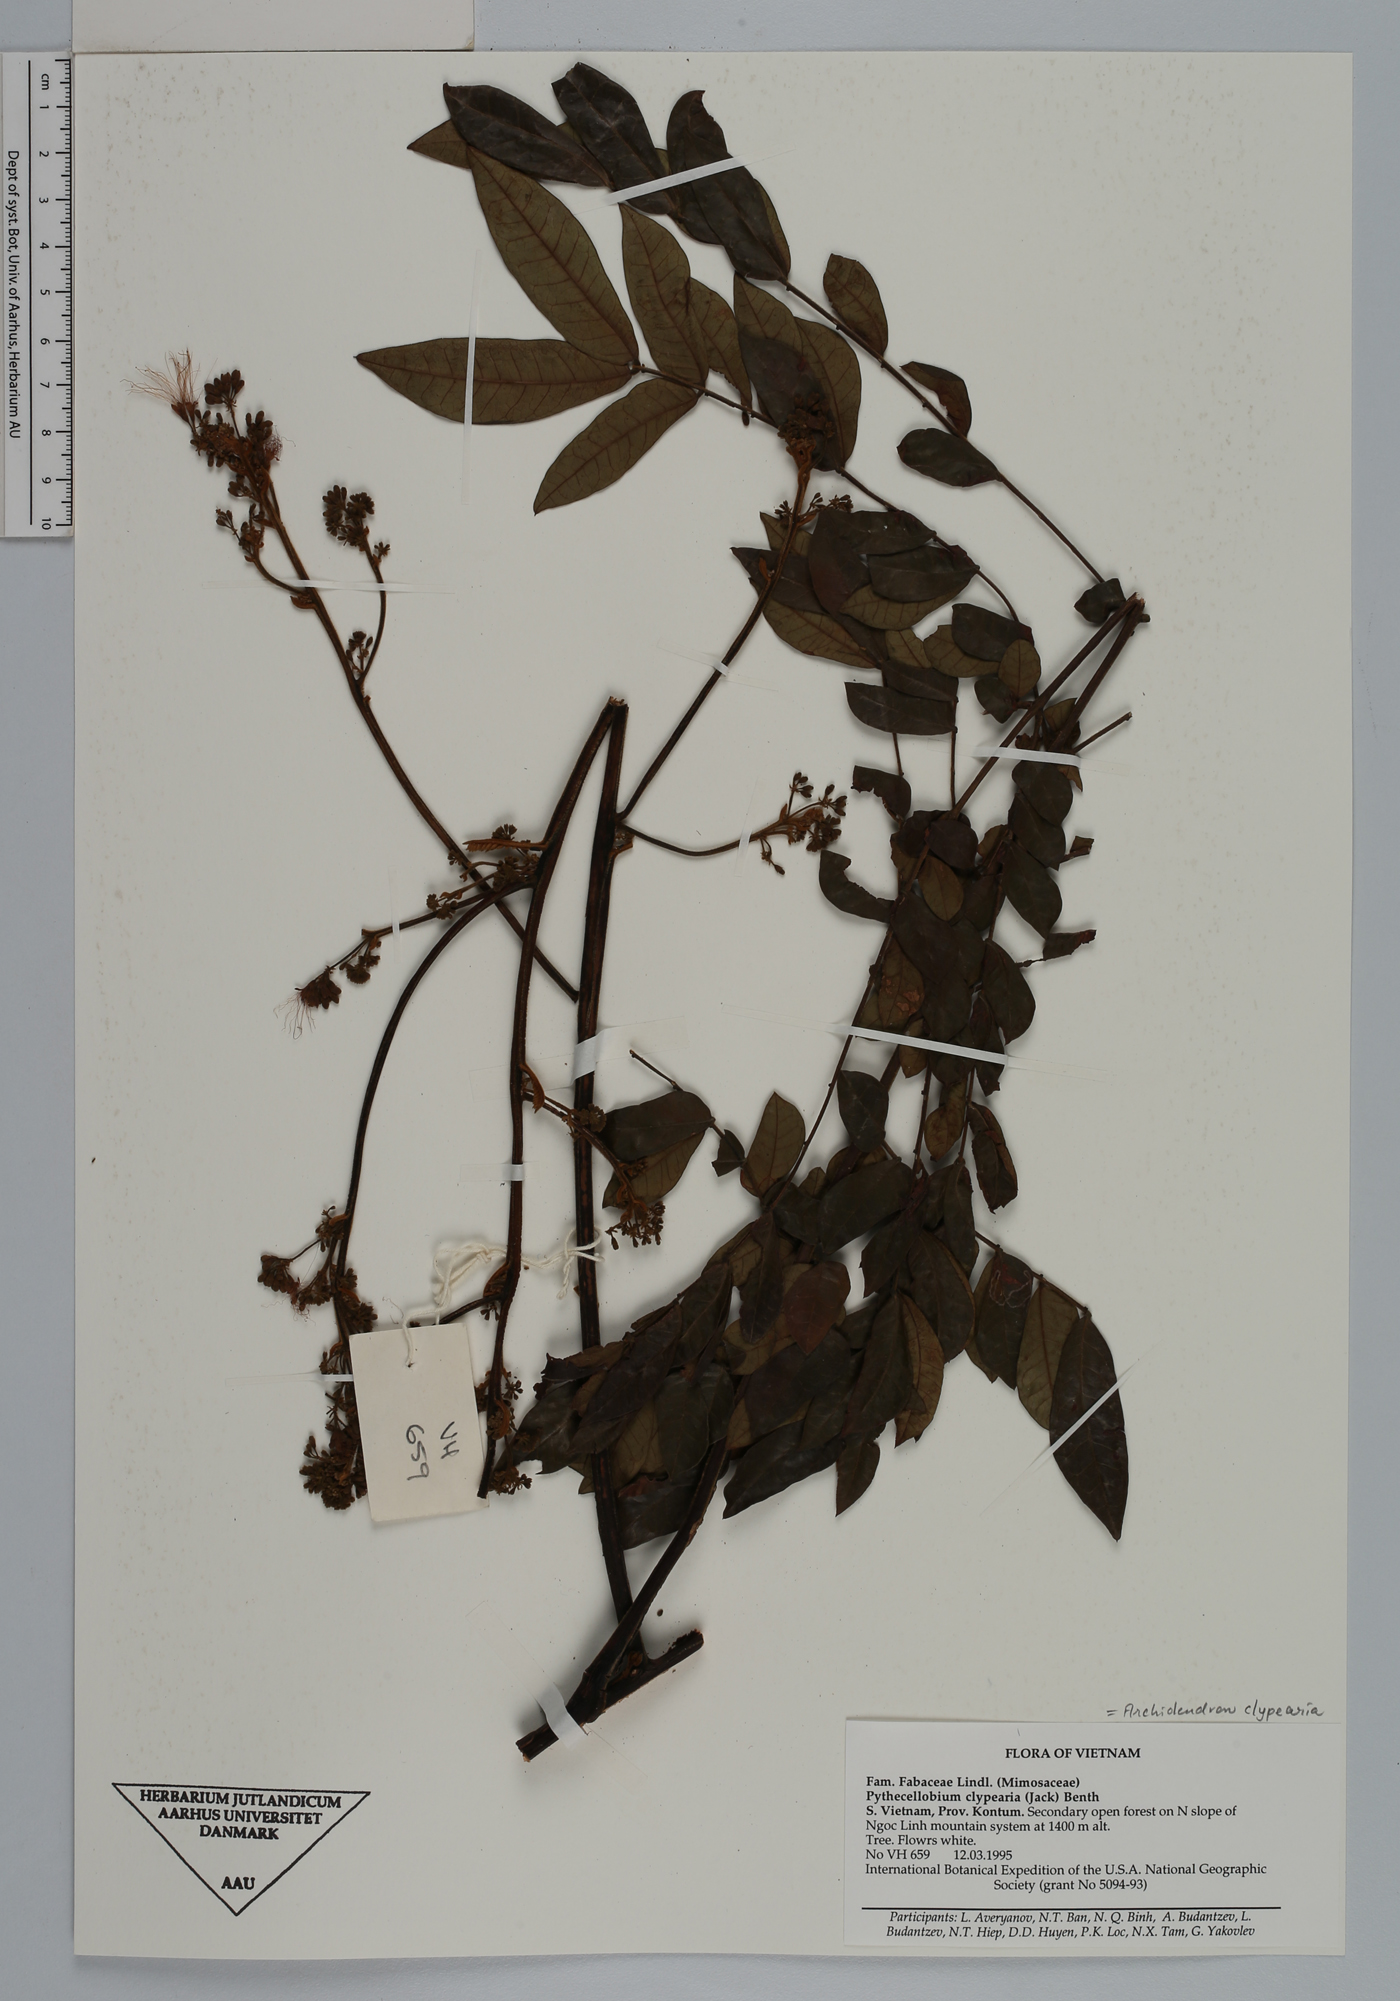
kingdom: Plantae
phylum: Tracheophyta
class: Magnoliopsida
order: Fabales
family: Fabaceae
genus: Archidendron
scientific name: Archidendron clypearia
